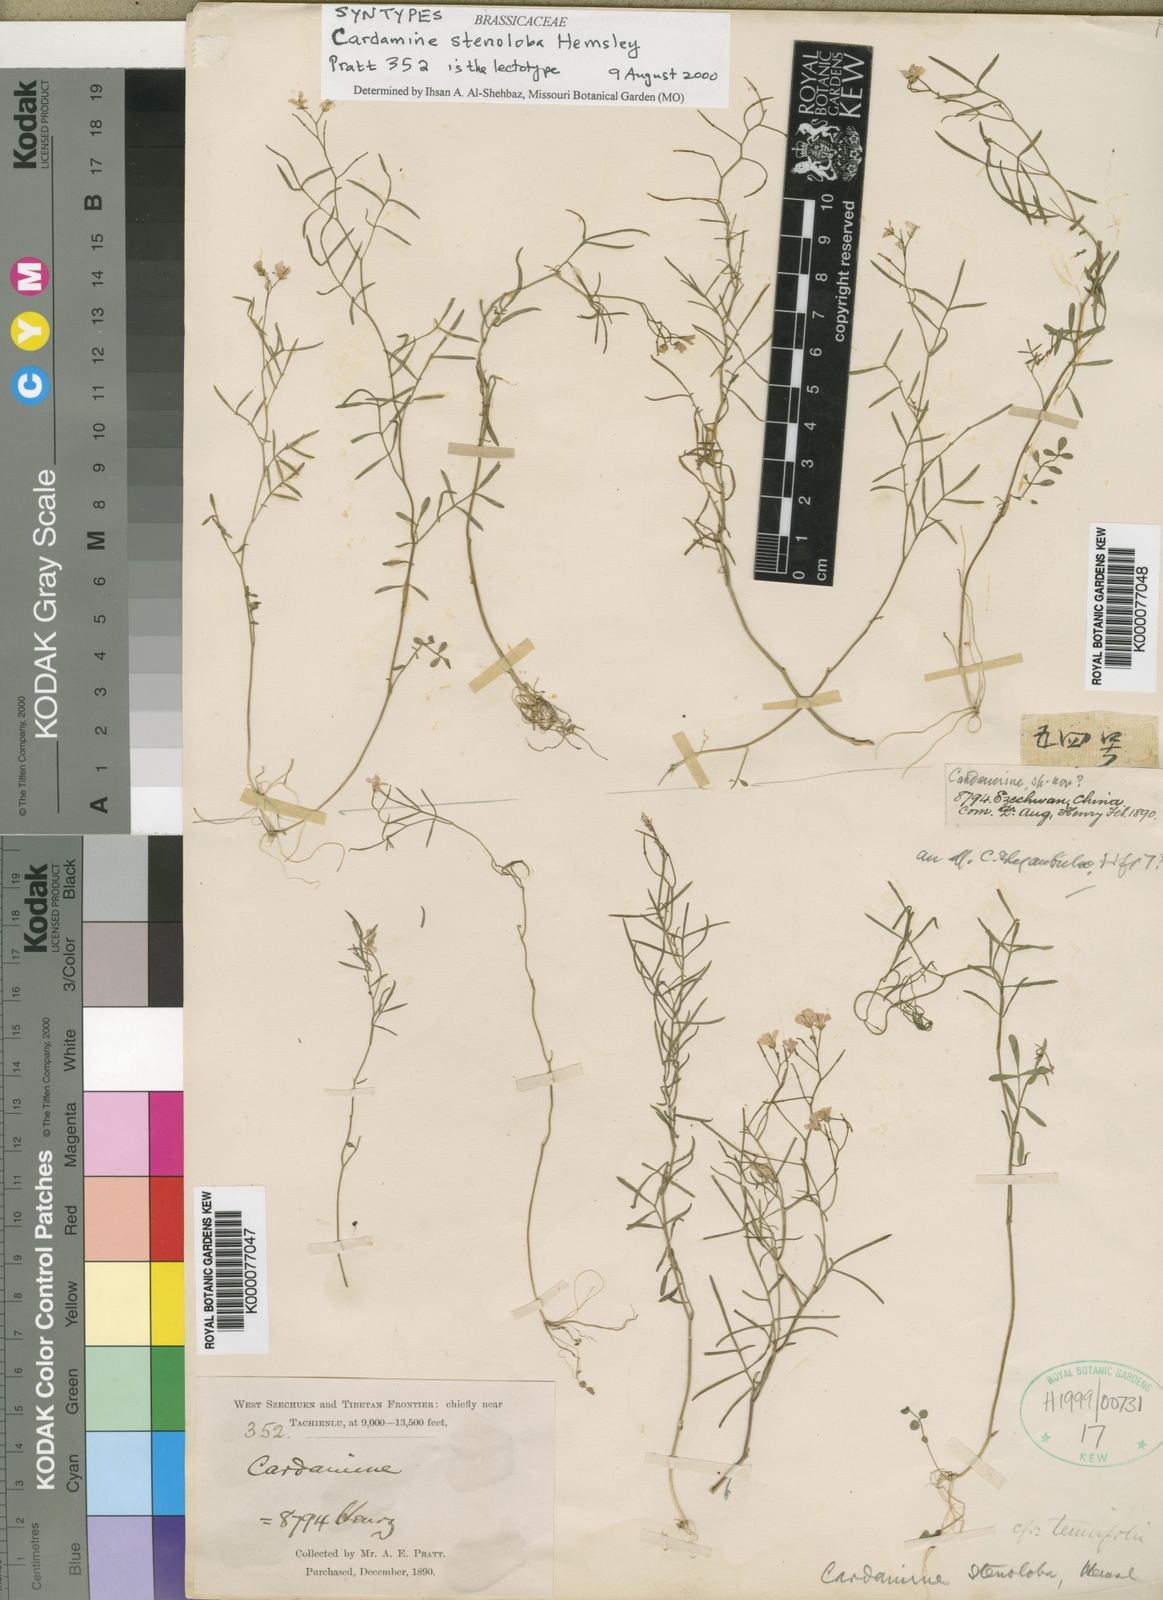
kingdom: Plantae
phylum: Tracheophyta
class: Magnoliopsida
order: Brassicales
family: Brassicaceae
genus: Cardamine
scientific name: Cardamine stenoloba
